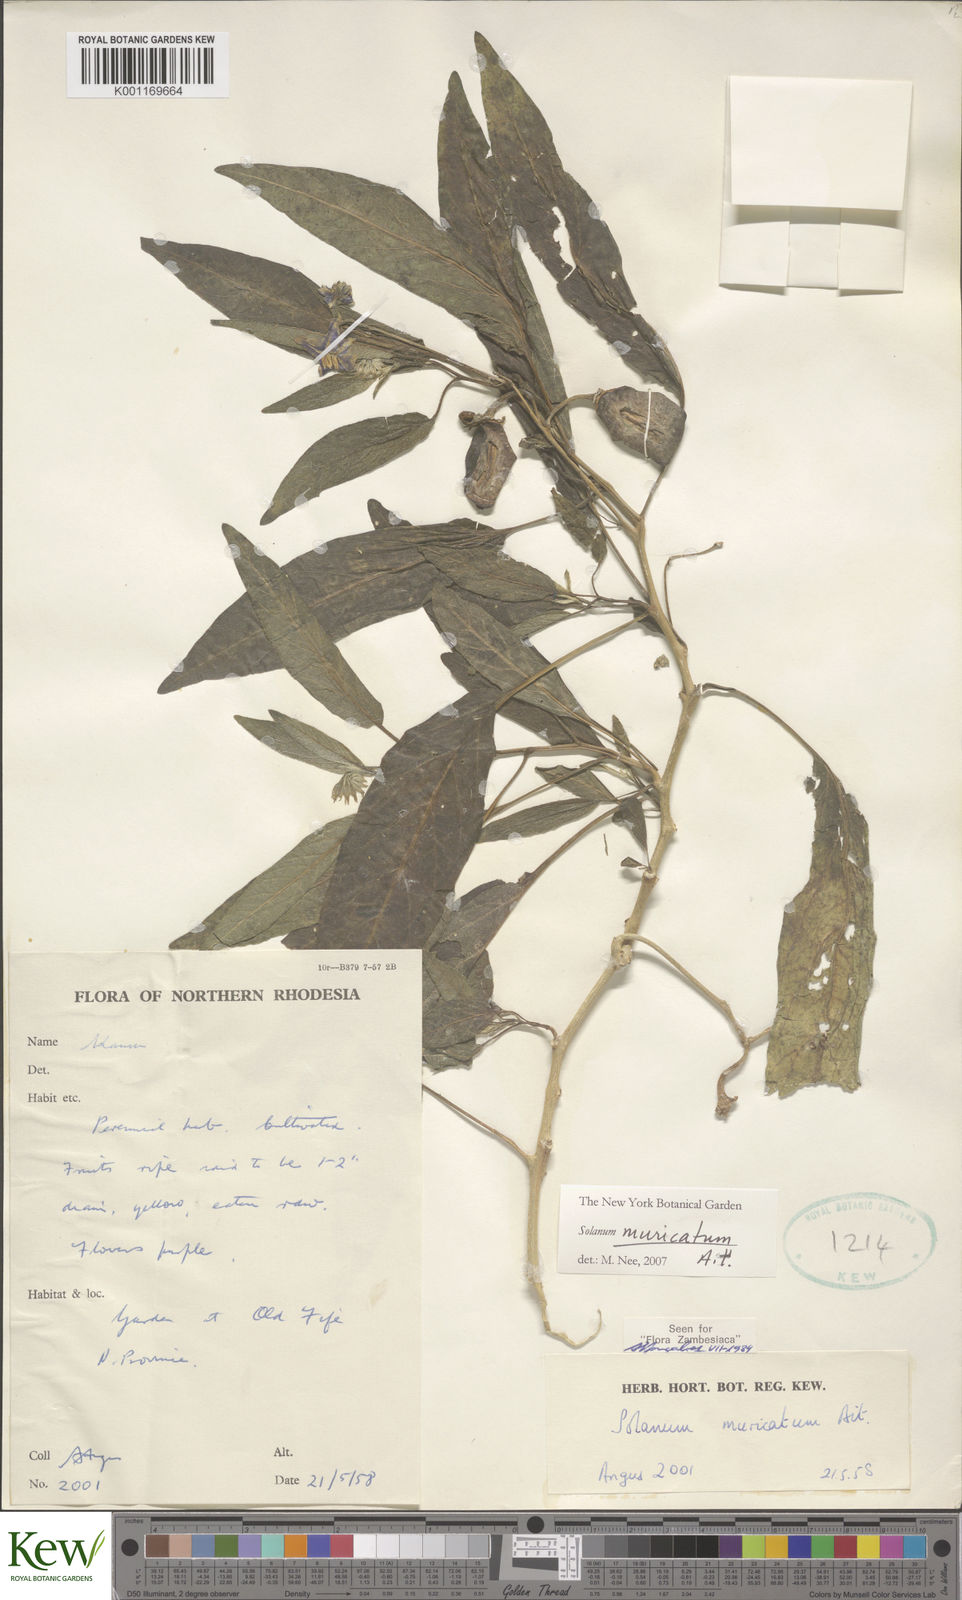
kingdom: Plantae
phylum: Tracheophyta
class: Magnoliopsida
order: Solanales
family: Solanaceae
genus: Solanum
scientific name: Solanum muricatum
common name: Peruvian pepino
